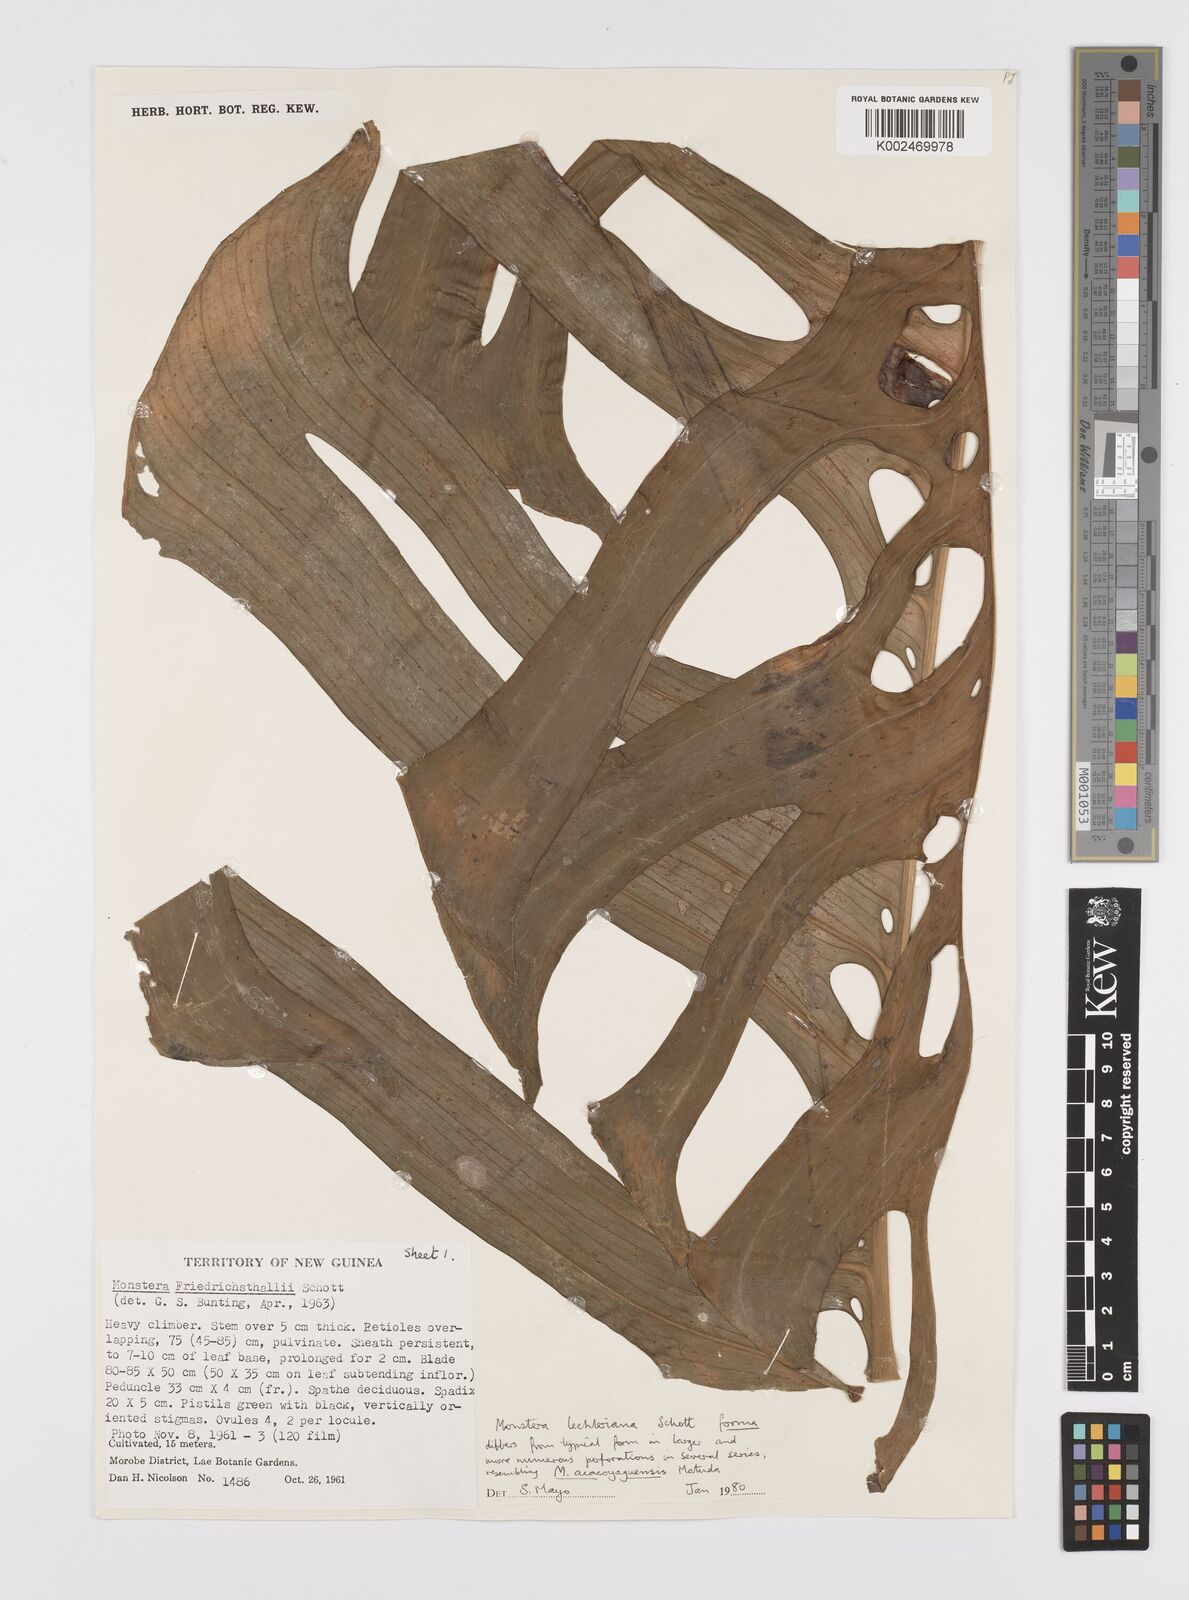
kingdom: Plantae
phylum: Tracheophyta
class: Liliopsida
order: Alismatales
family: Araceae
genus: Monstera
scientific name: Monstera lechleriana
